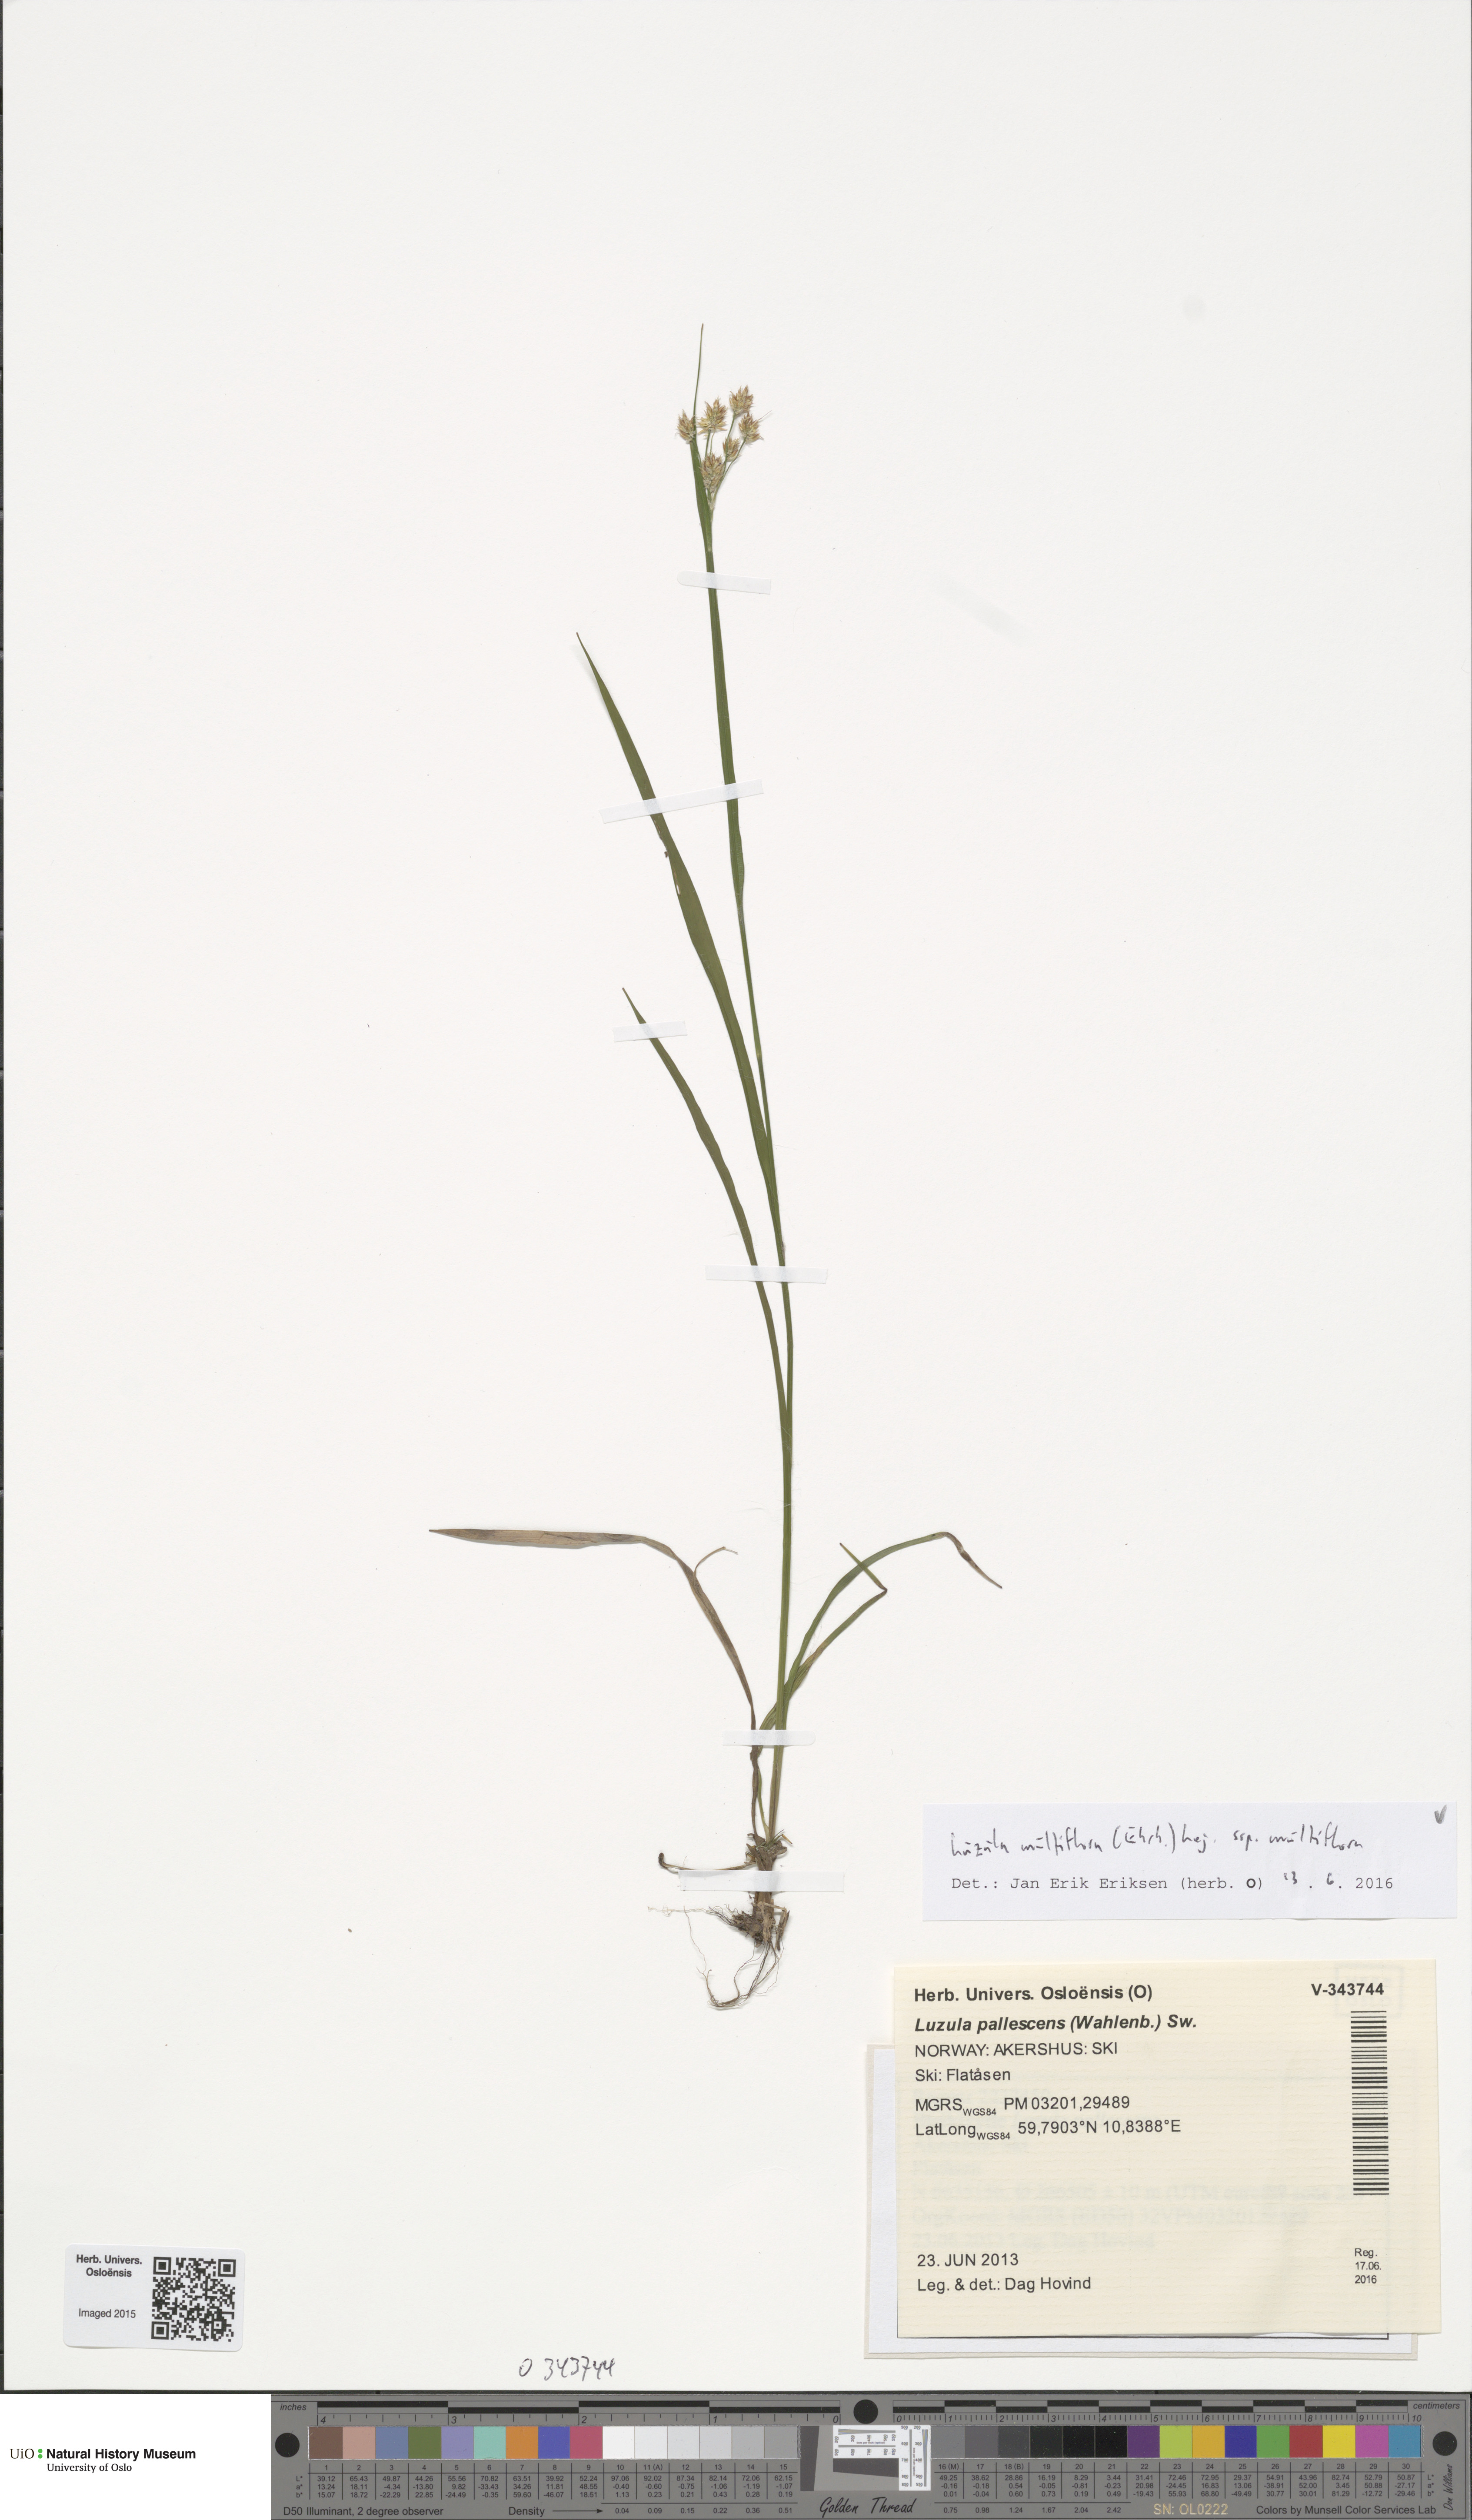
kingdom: Plantae
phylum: Tracheophyta
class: Liliopsida
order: Poales
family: Juncaceae
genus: Luzula
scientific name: Luzula multiflora
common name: Heath wood-rush
